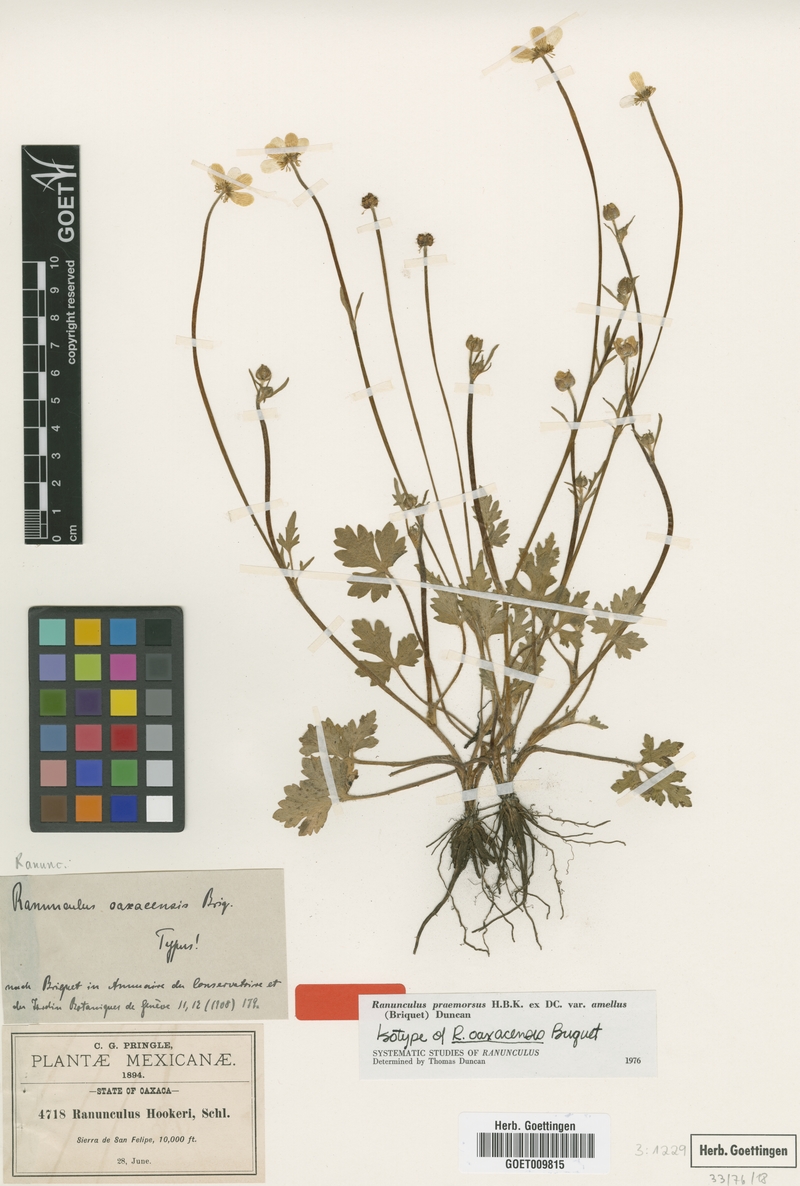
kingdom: Plantae
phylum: Tracheophyta
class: Magnoliopsida
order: Ranunculales
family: Ranunculaceae
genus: Ranunculus
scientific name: Ranunculus praemorsus
